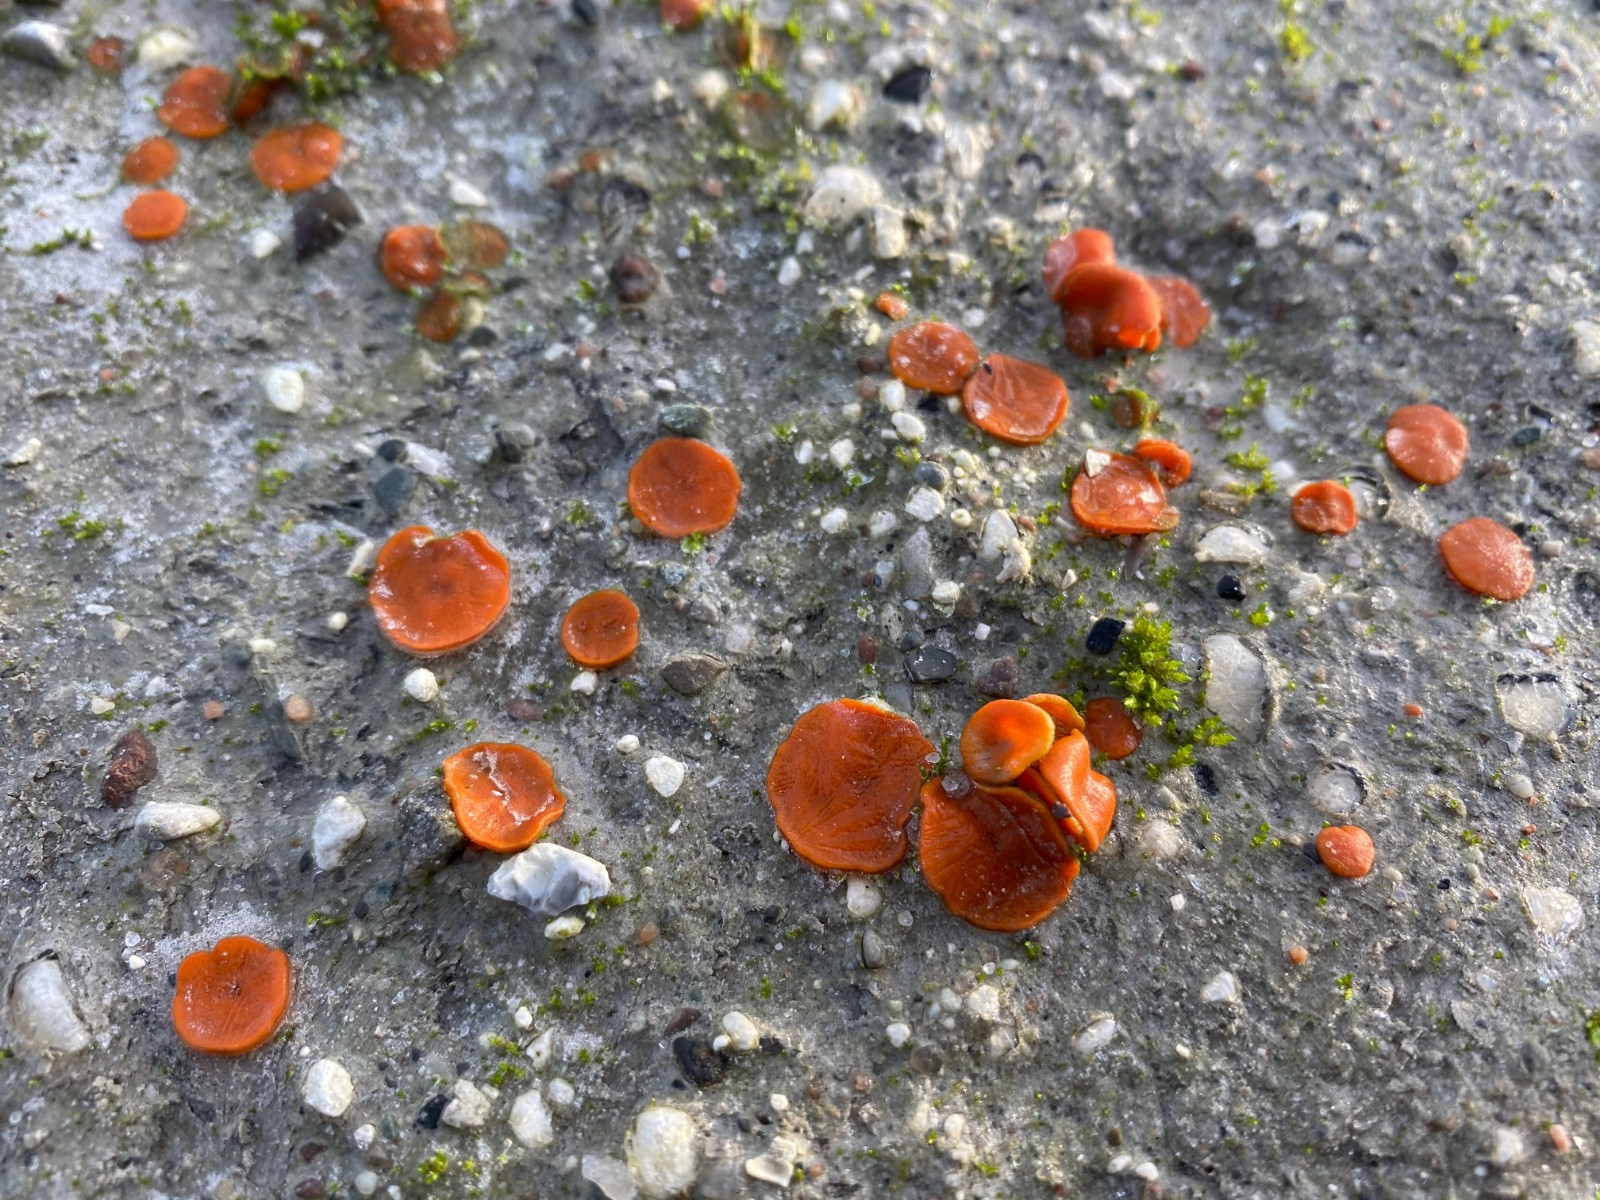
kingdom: Fungi
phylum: Ascomycota
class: Pezizomycetes
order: Pezizales
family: Pyronemataceae
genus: Melastiza
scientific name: Melastiza cornubiensis
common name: mørkrandet rødbæger
